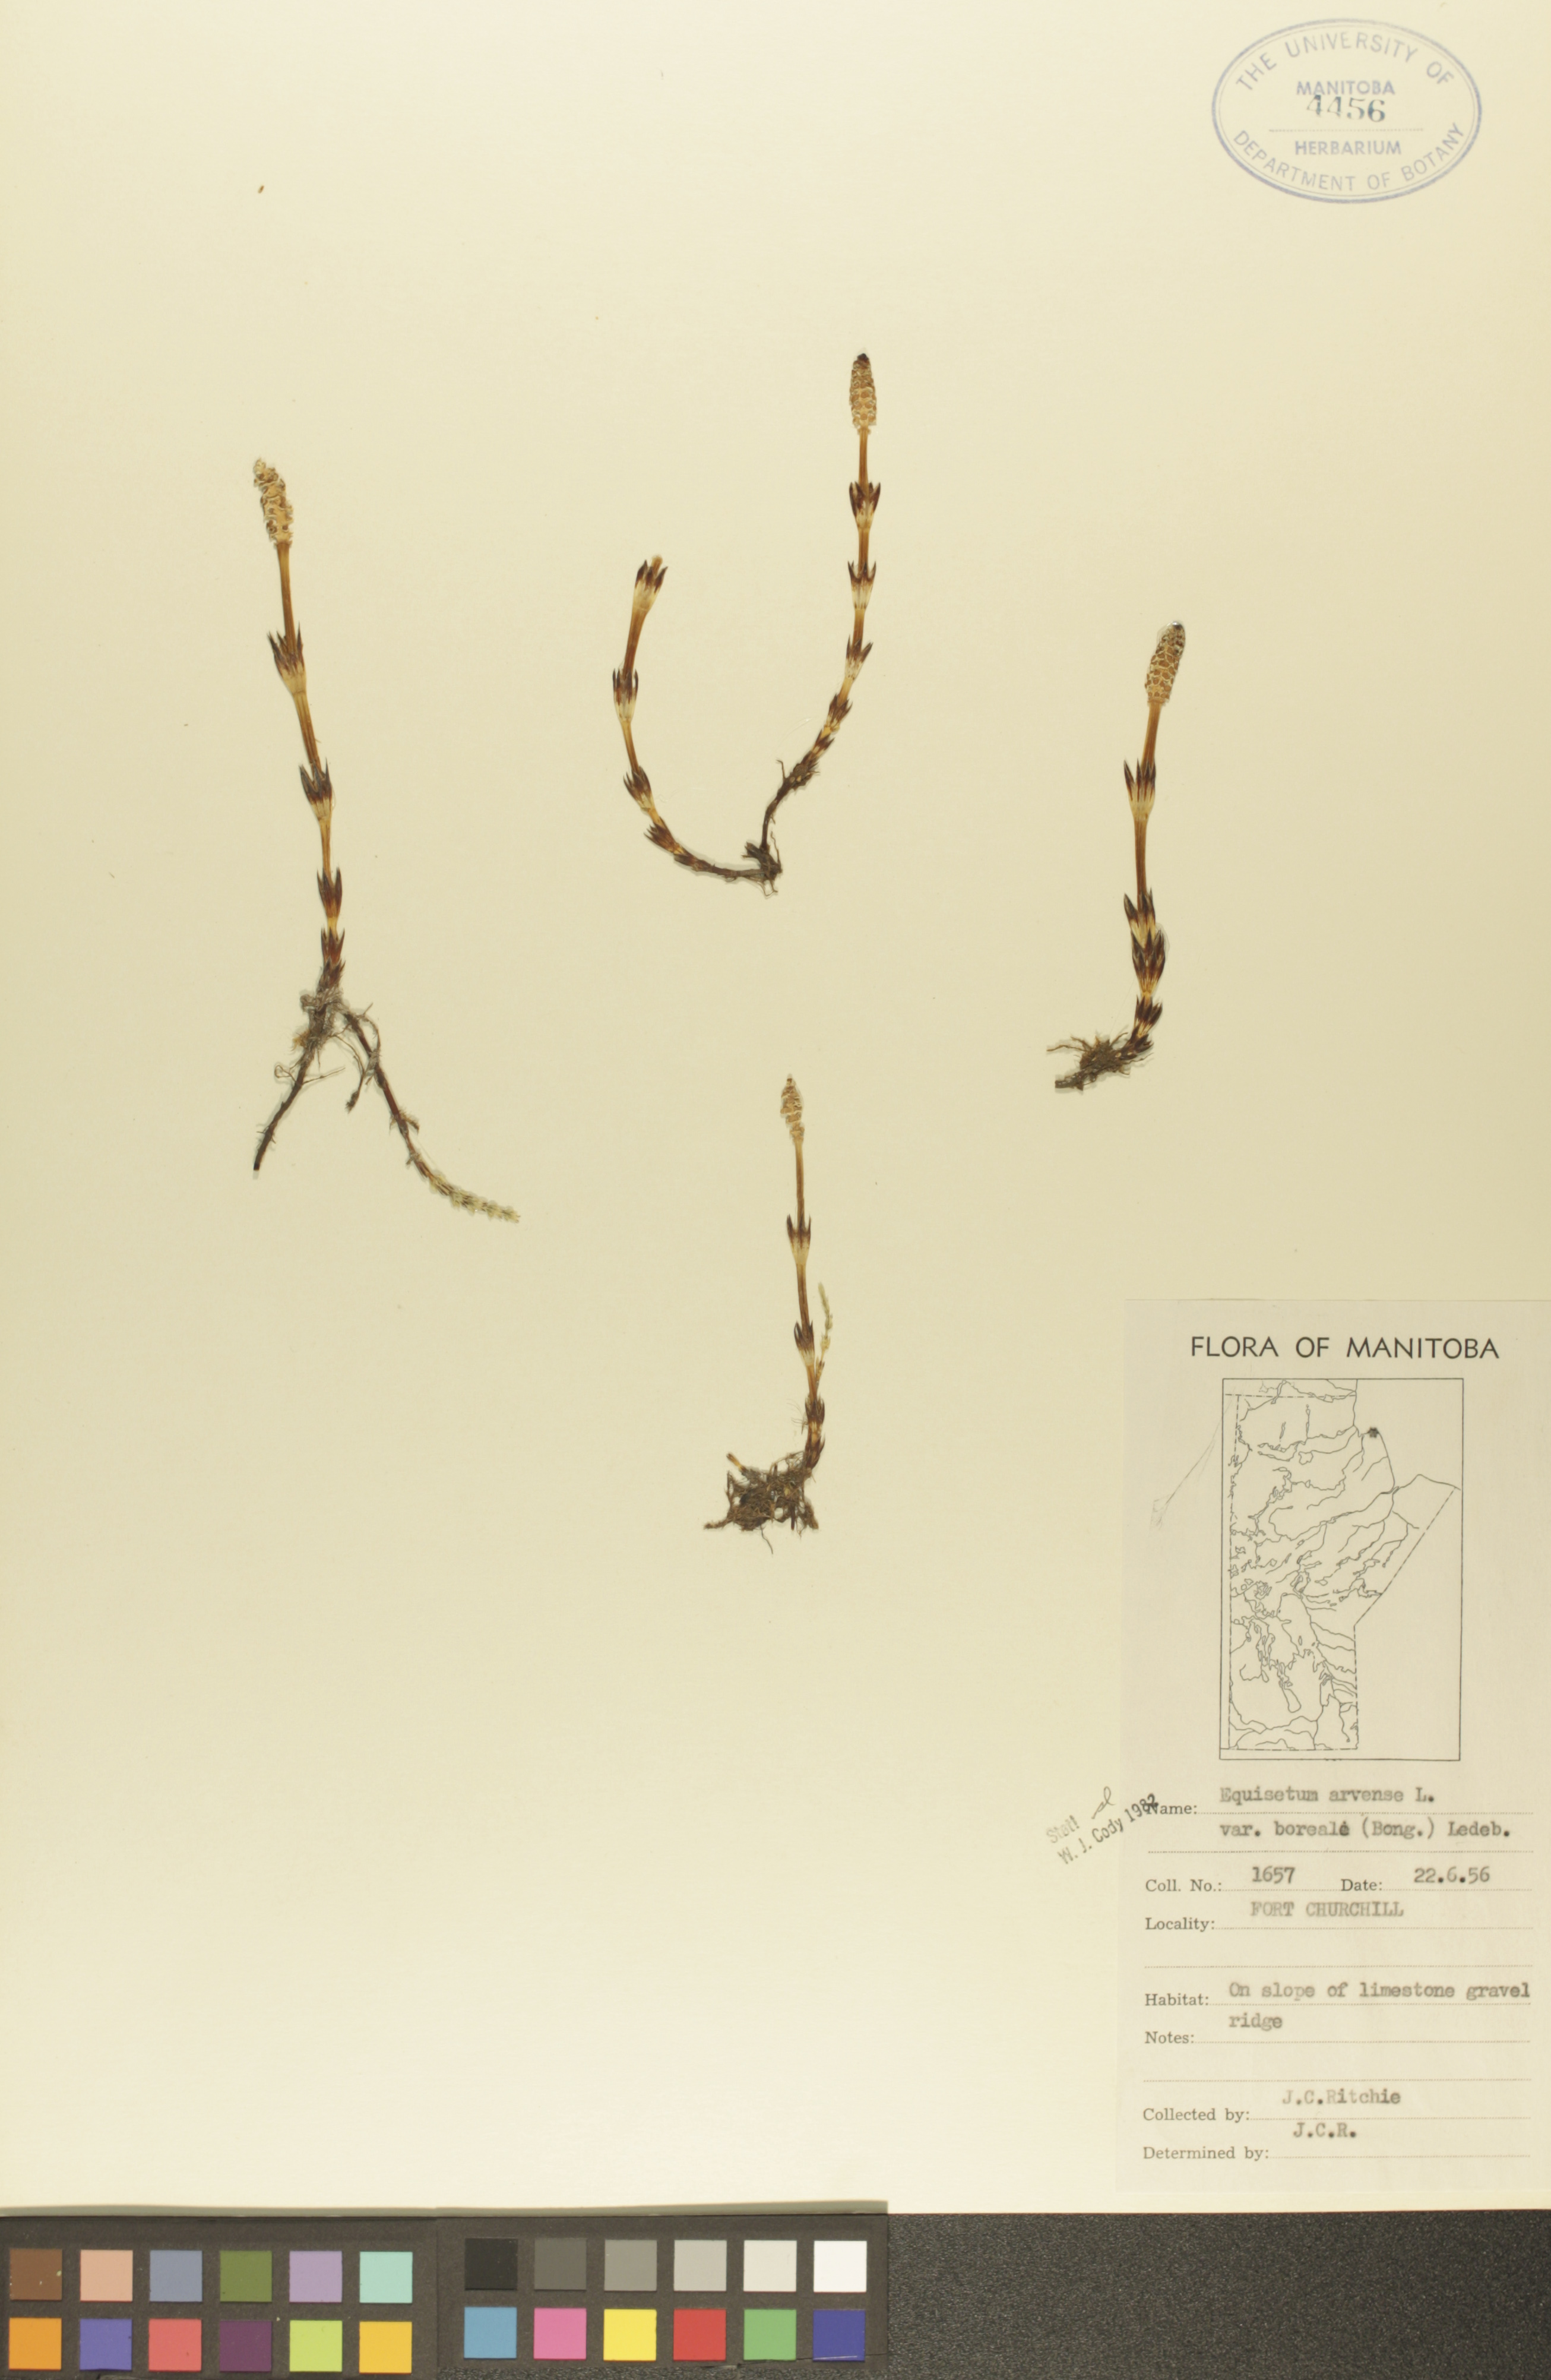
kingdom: Plantae
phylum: Tracheophyta
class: Polypodiopsida
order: Equisetales
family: Equisetaceae
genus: Equisetum
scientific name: Equisetum arvense
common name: Field horsetail
